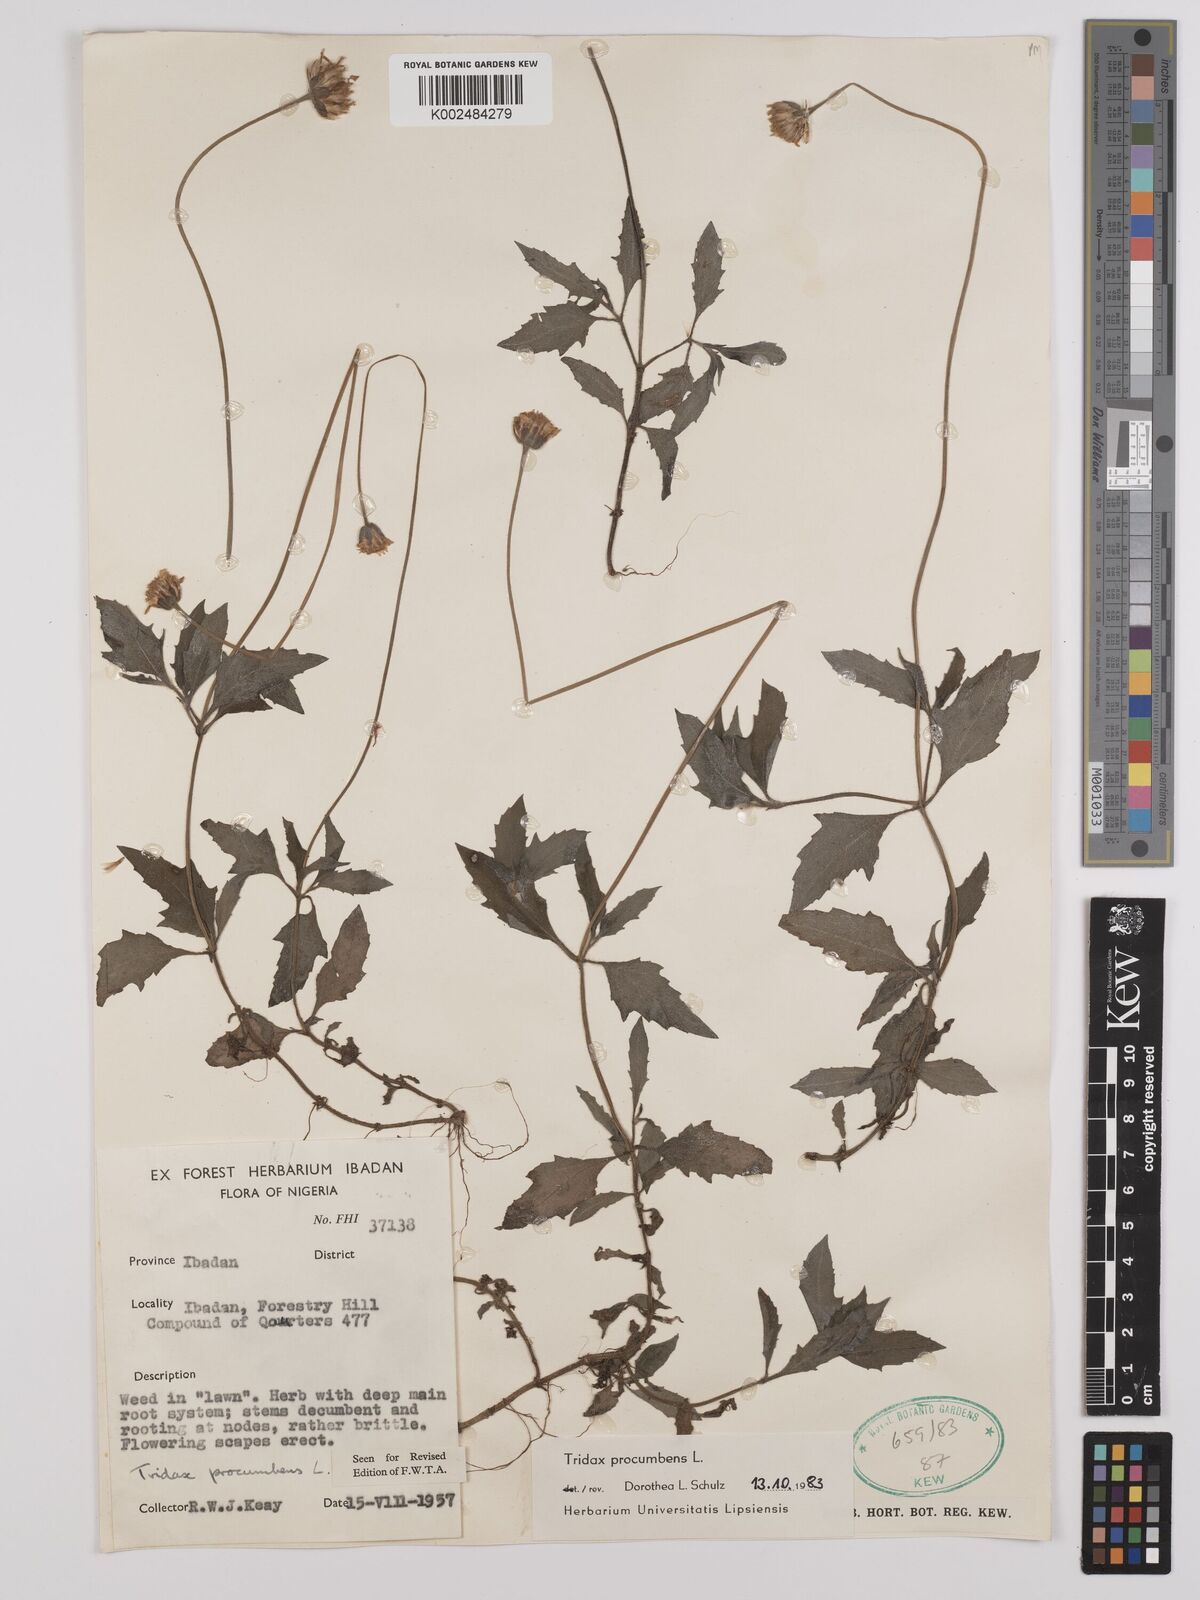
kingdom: Plantae
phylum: Tracheophyta
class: Magnoliopsida
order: Asterales
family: Asteraceae
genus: Tridax
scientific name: Tridax procumbens
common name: Coatbuttons
